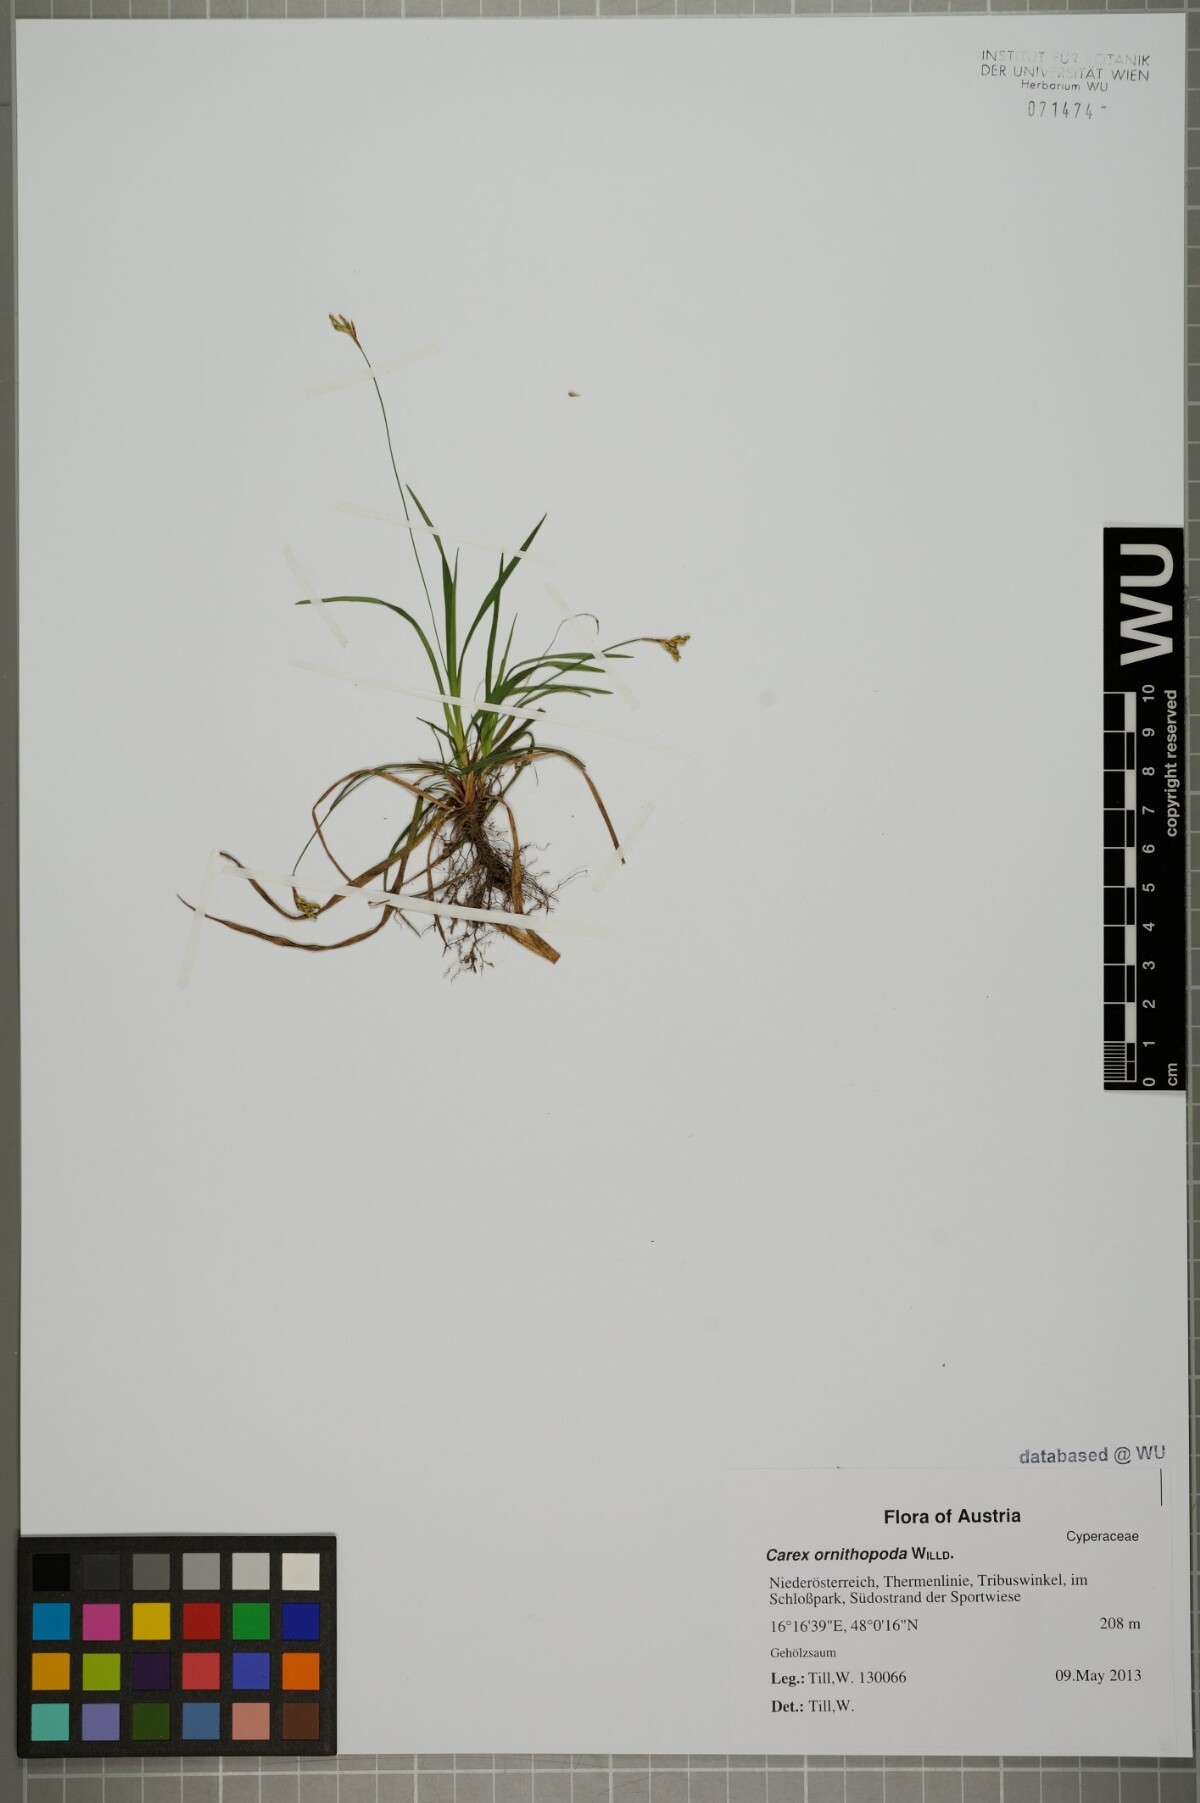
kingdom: Plantae
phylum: Tracheophyta
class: Liliopsida
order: Poales
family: Cyperaceae
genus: Carex
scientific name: Carex ornithopoda
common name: Bird's-foot sedge
